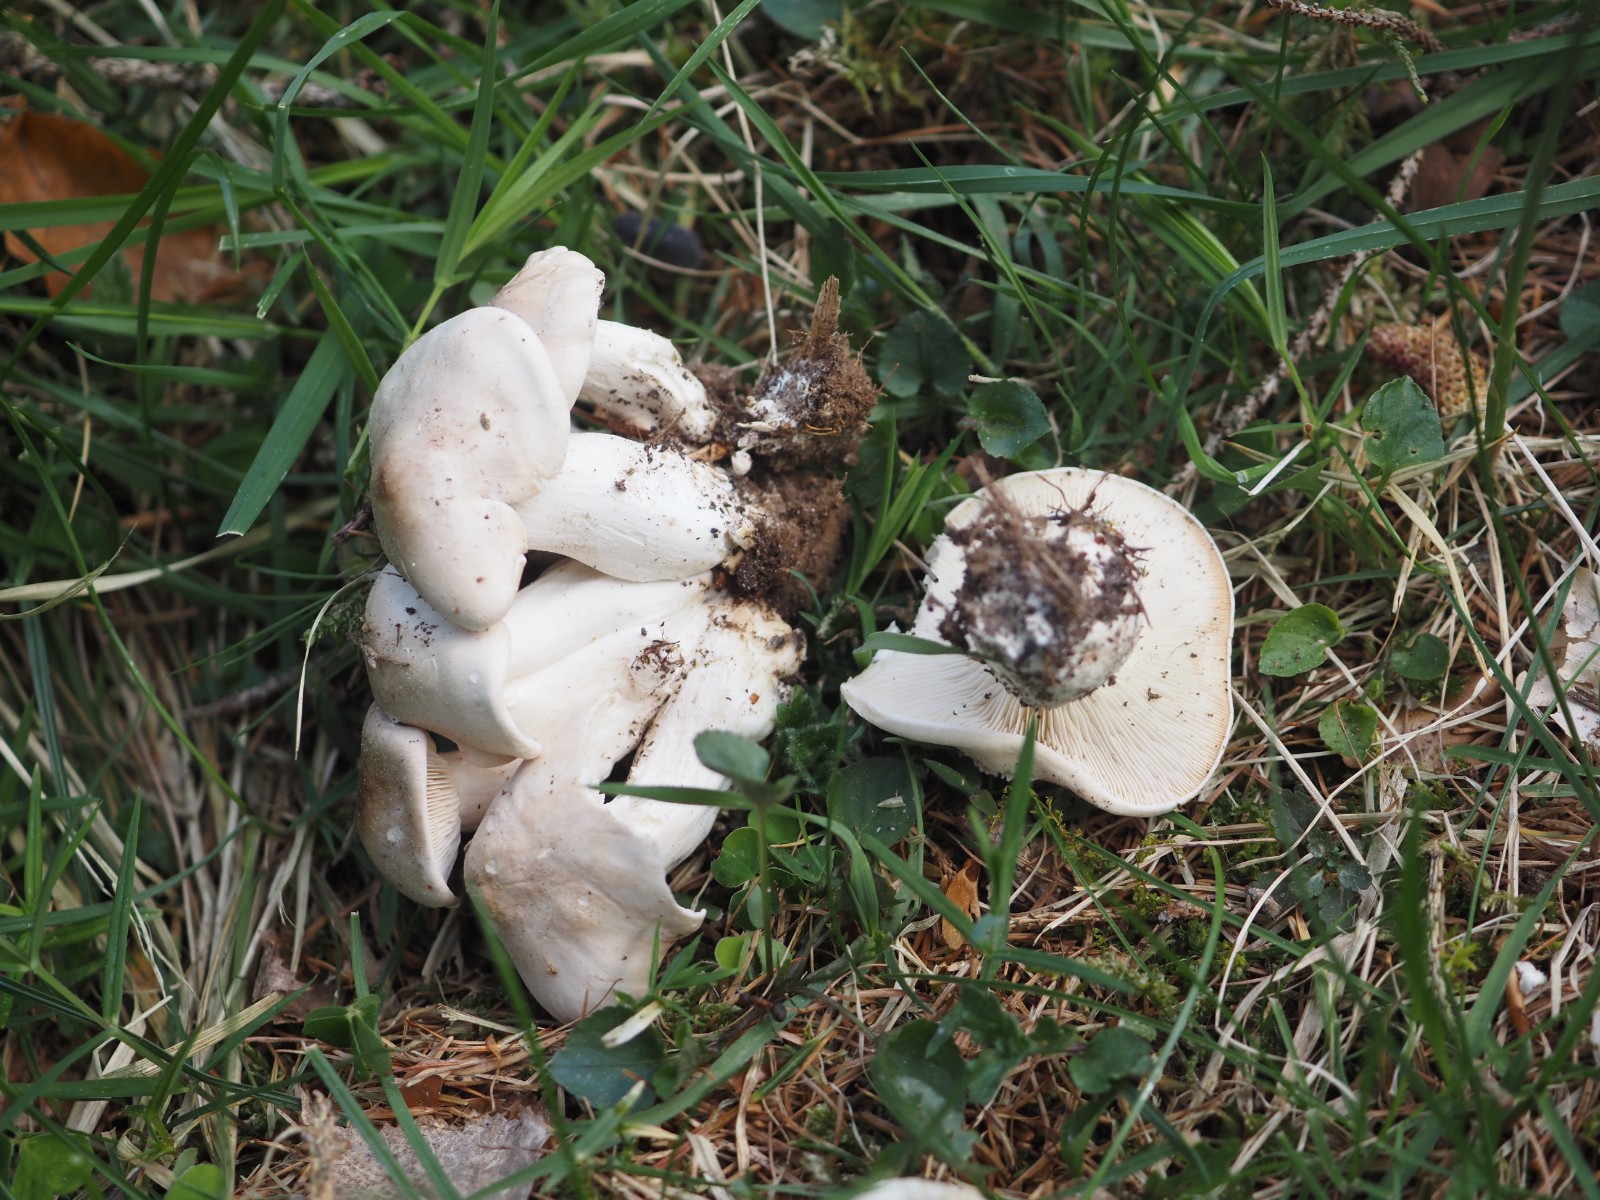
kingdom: Fungi
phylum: Basidiomycota
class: Agaricomycetes
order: Agaricales
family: Lyophyllaceae
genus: Calocybe
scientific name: Calocybe gambosa
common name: vårmusseron
